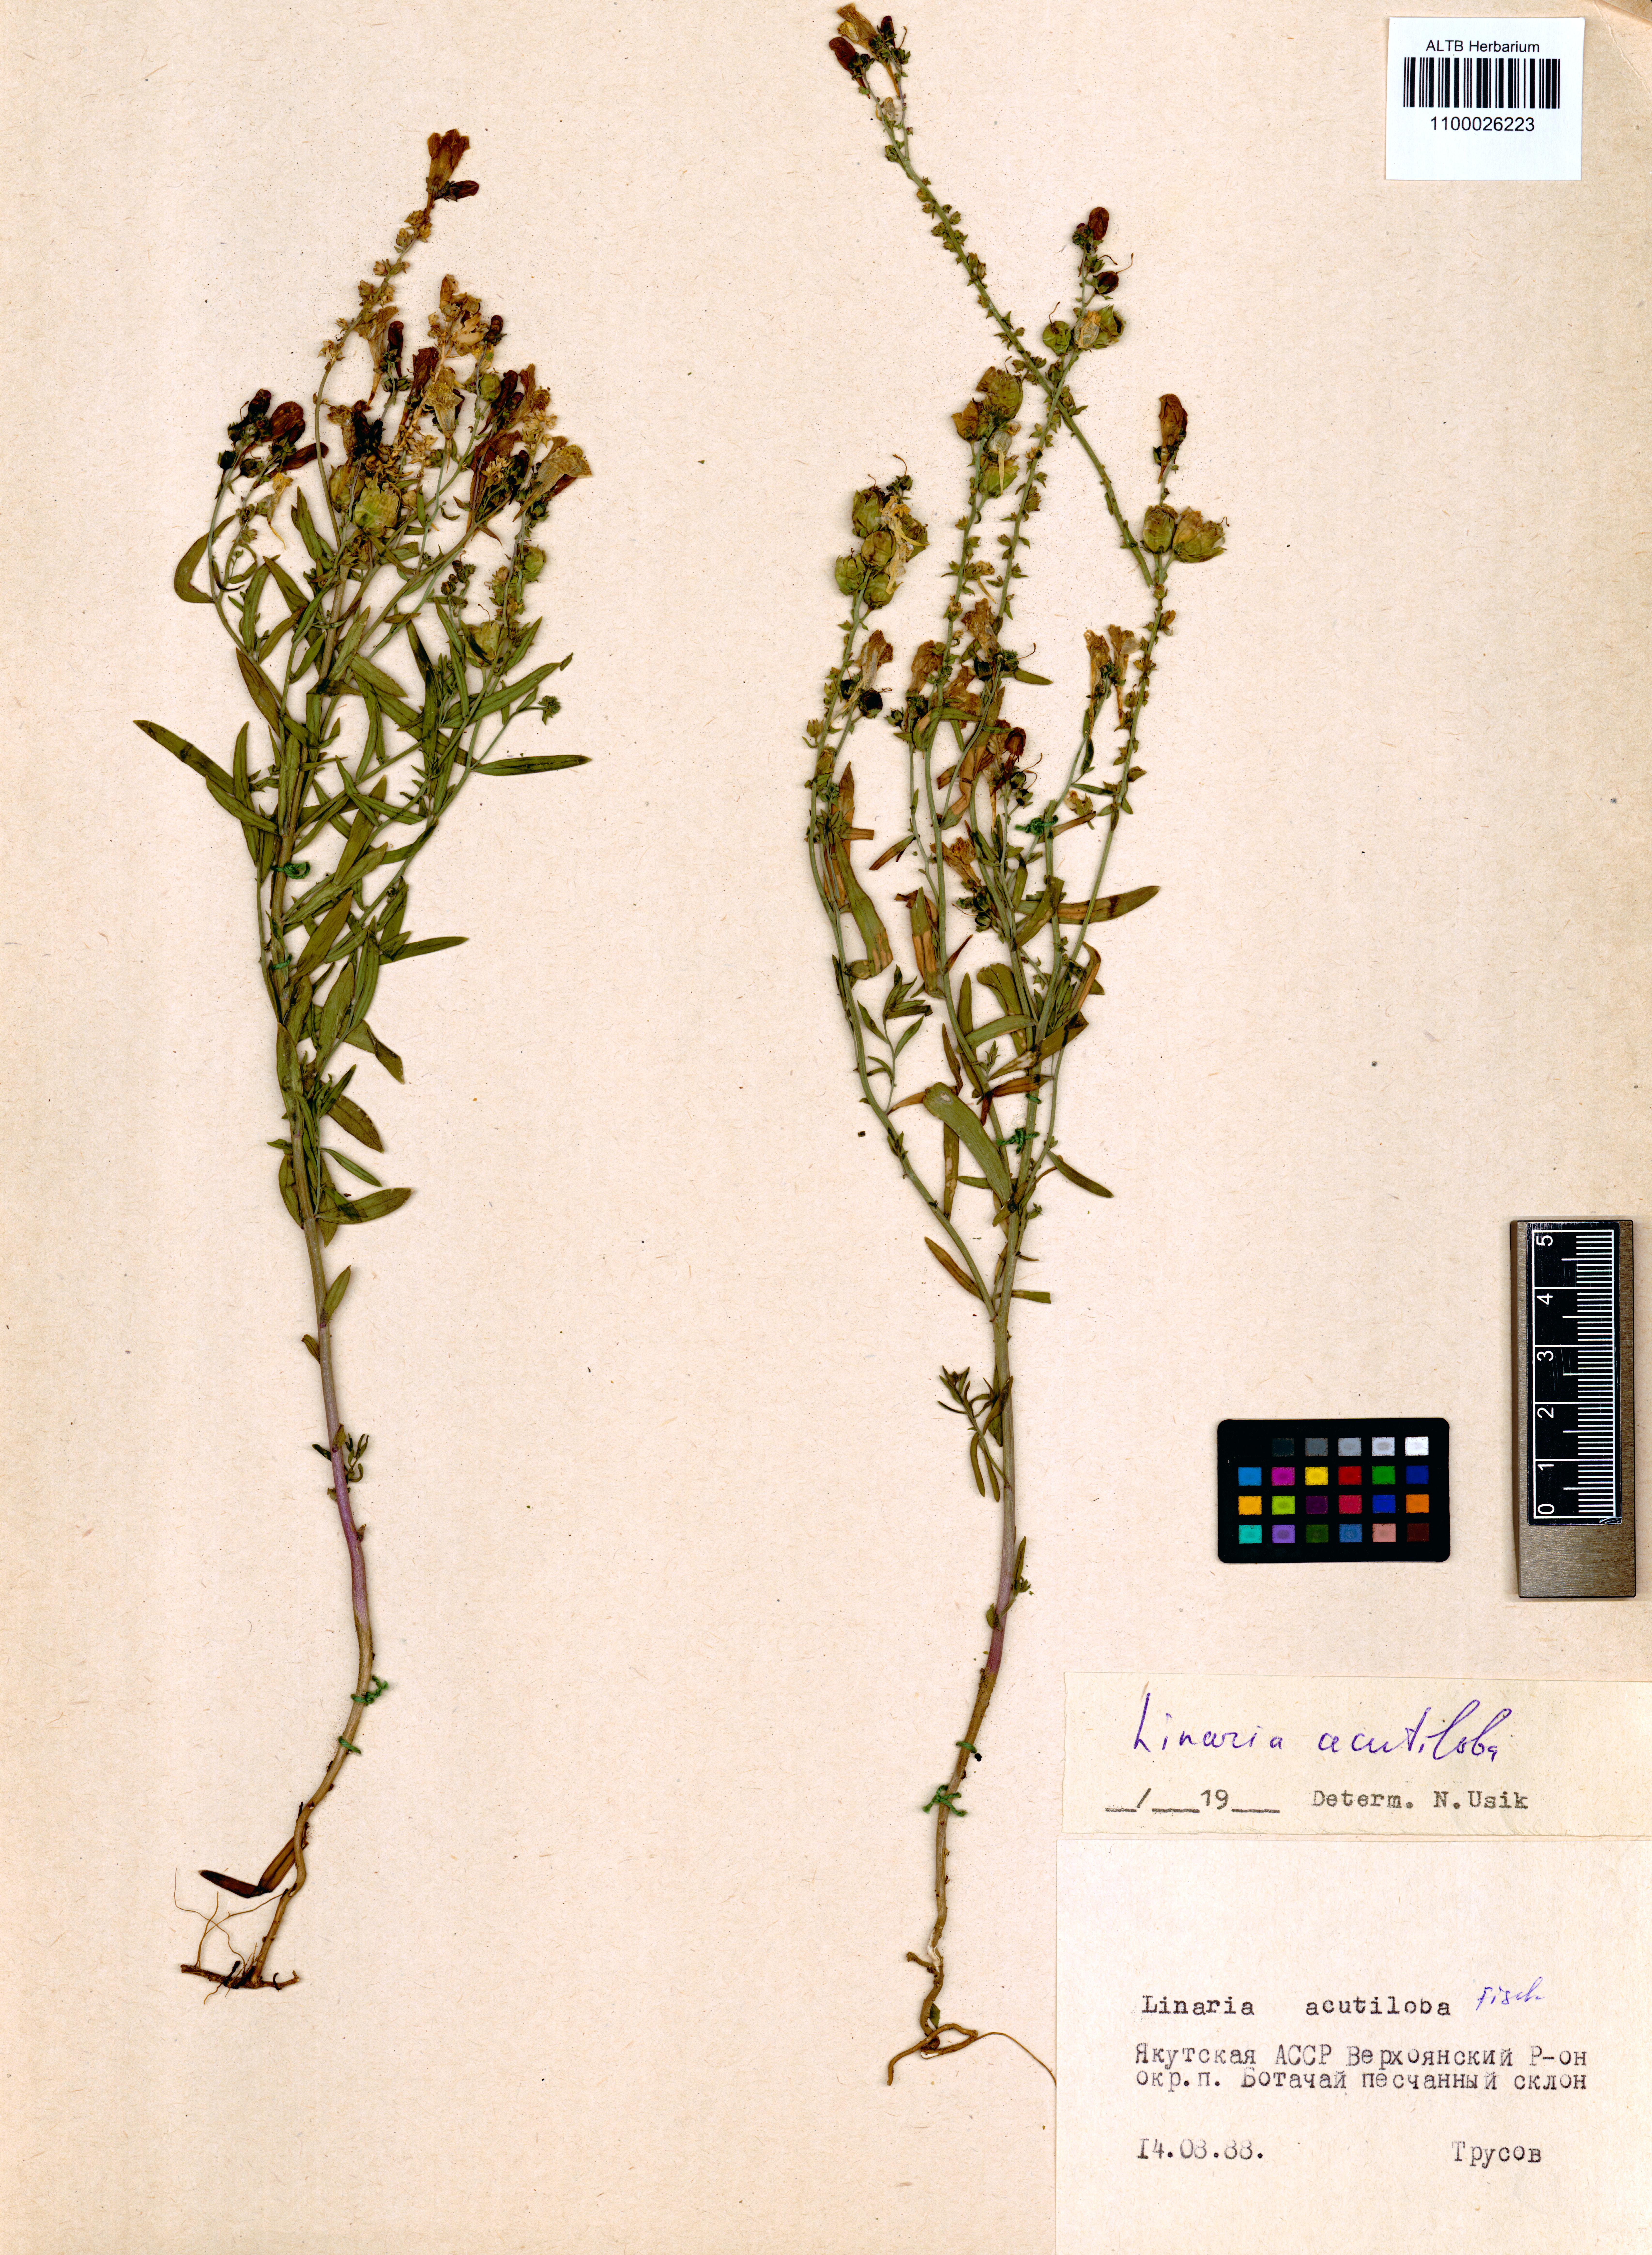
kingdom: Plantae
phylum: Tracheophyta
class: Magnoliopsida
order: Lamiales
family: Plantaginaceae
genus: Linaria
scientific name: Linaria acutiloba
